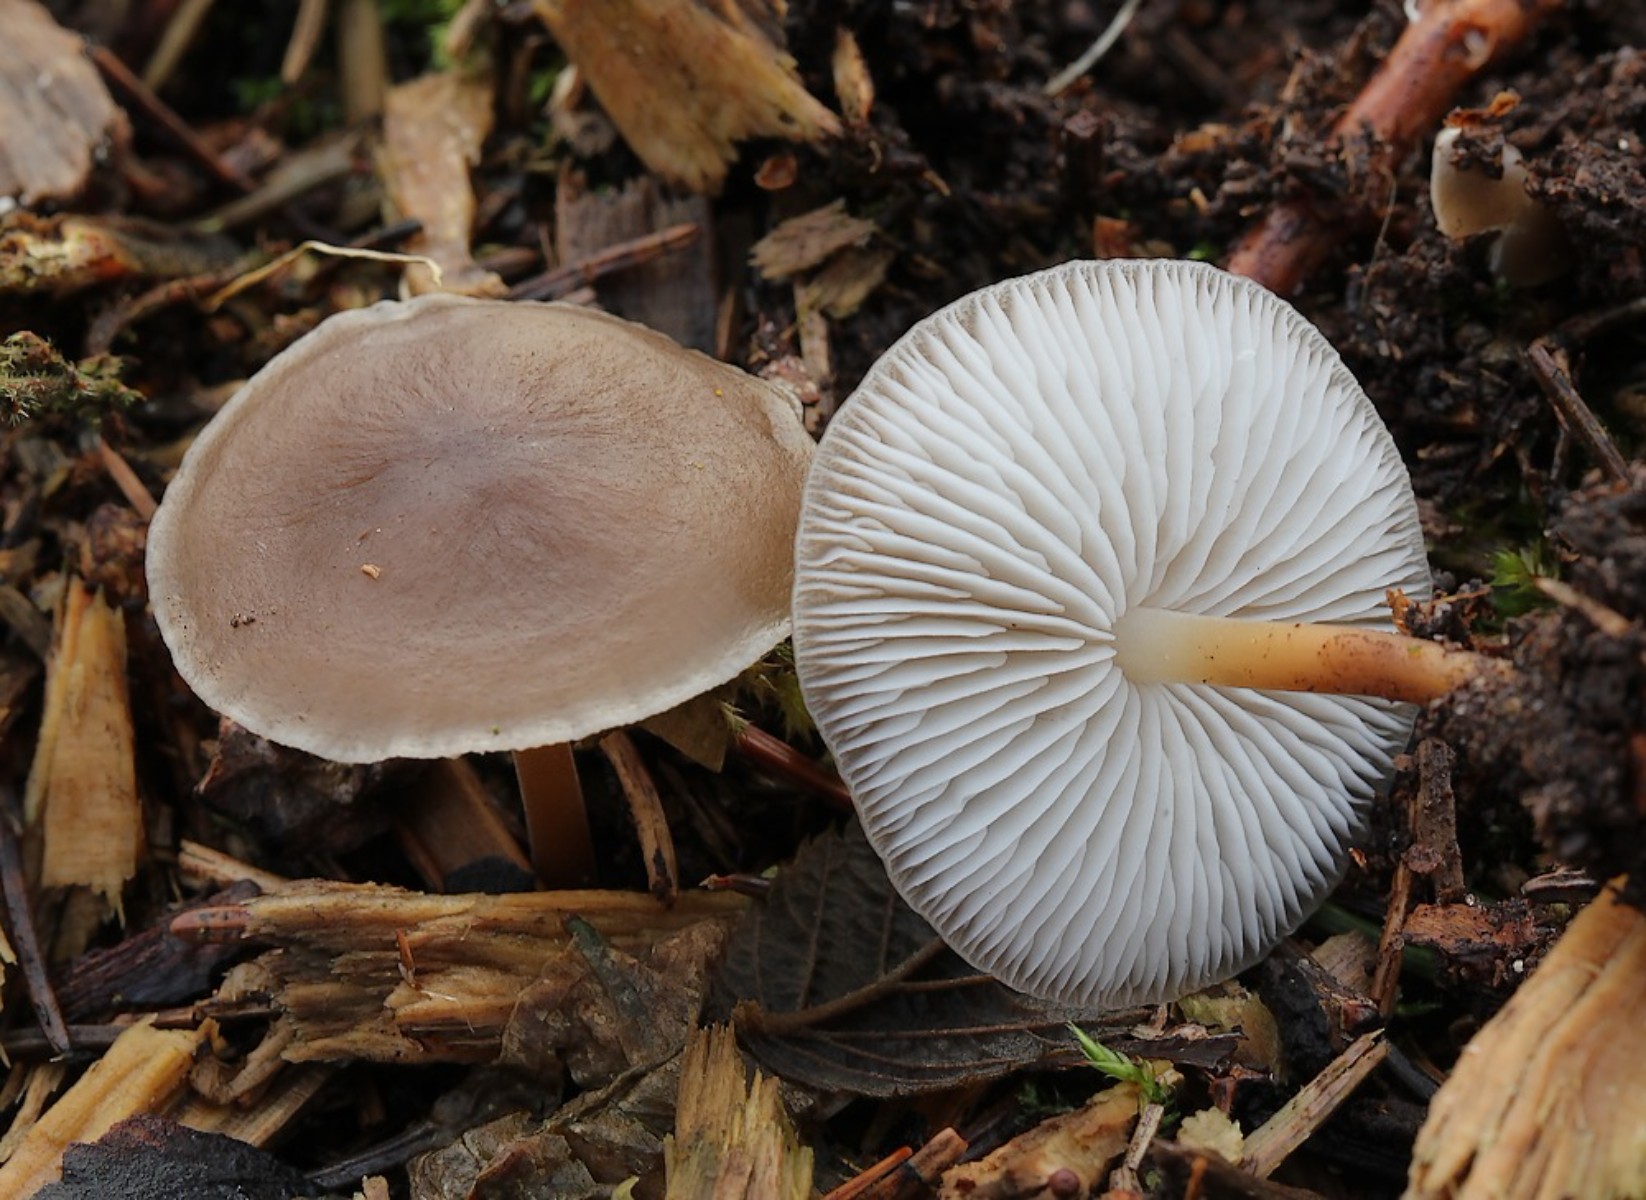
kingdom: Fungi
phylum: Basidiomycota
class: Agaricomycetes
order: Agaricales
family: Physalacriaceae
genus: Strobilurus
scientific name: Strobilurus esculentus
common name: gran-koglehat
